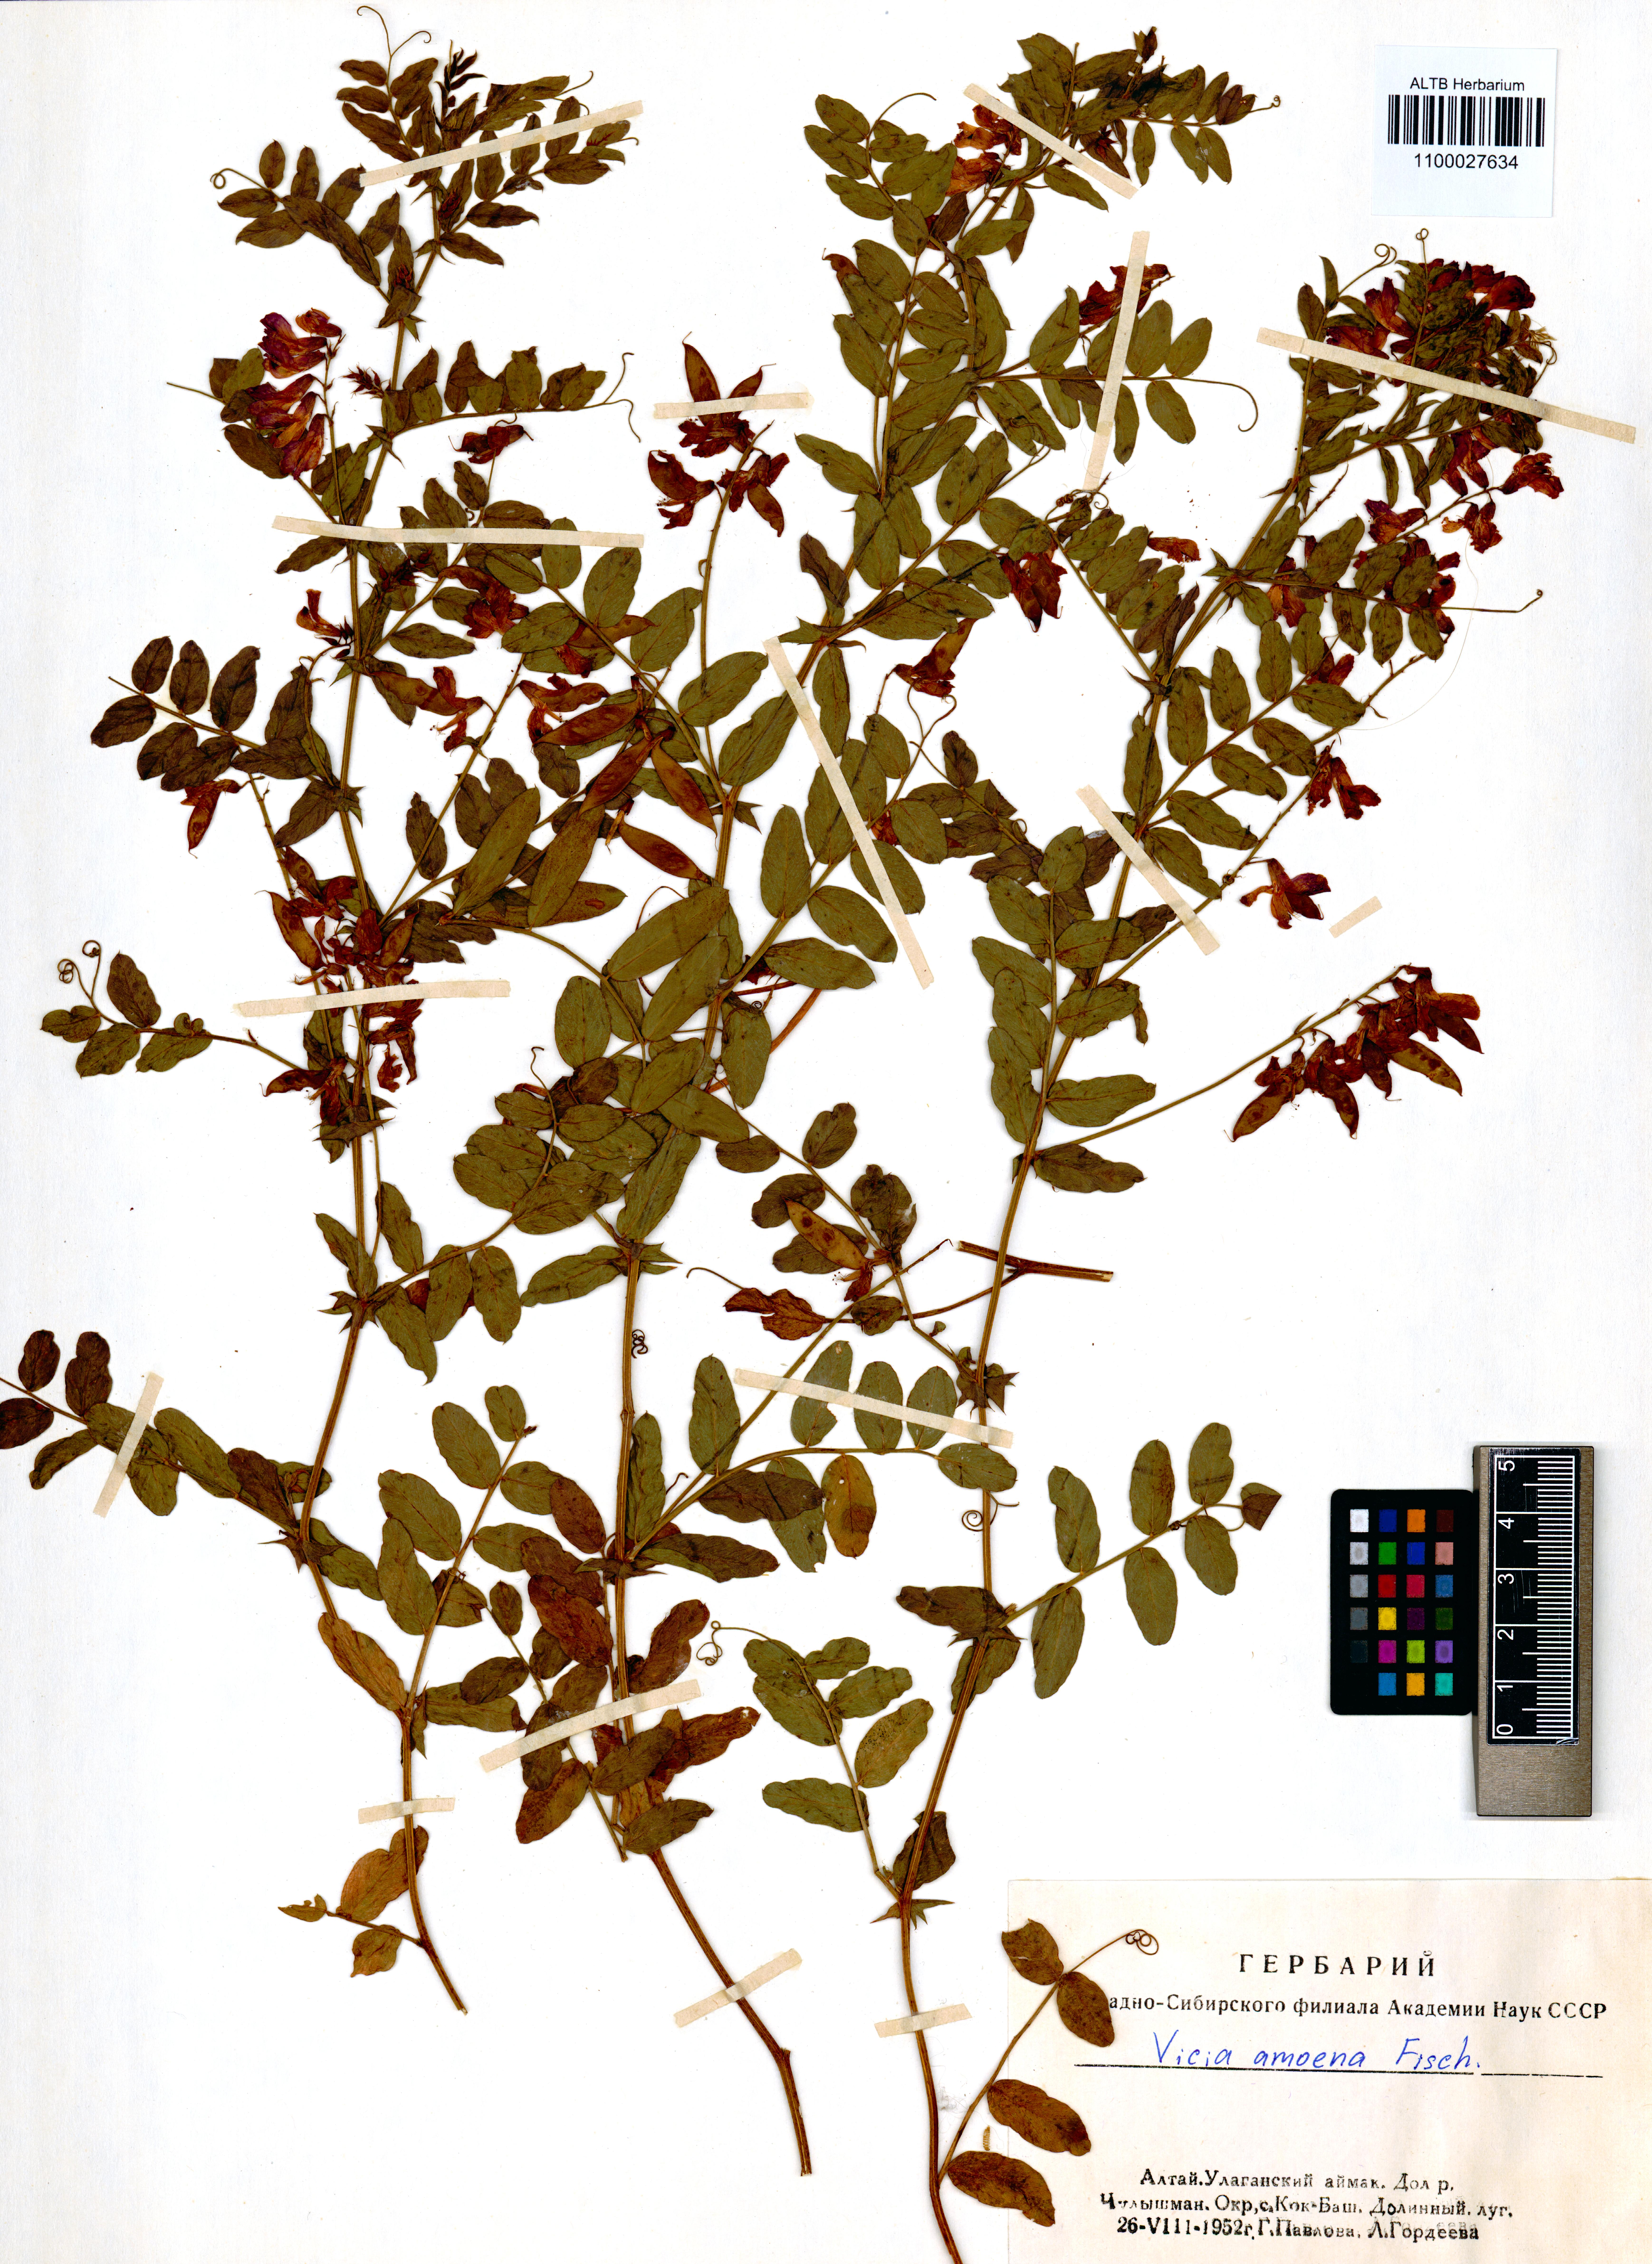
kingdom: Plantae
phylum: Tracheophyta
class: Magnoliopsida
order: Fabales
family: Fabaceae
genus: Vicia
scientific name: Vicia amoena
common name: Cheder ebs
